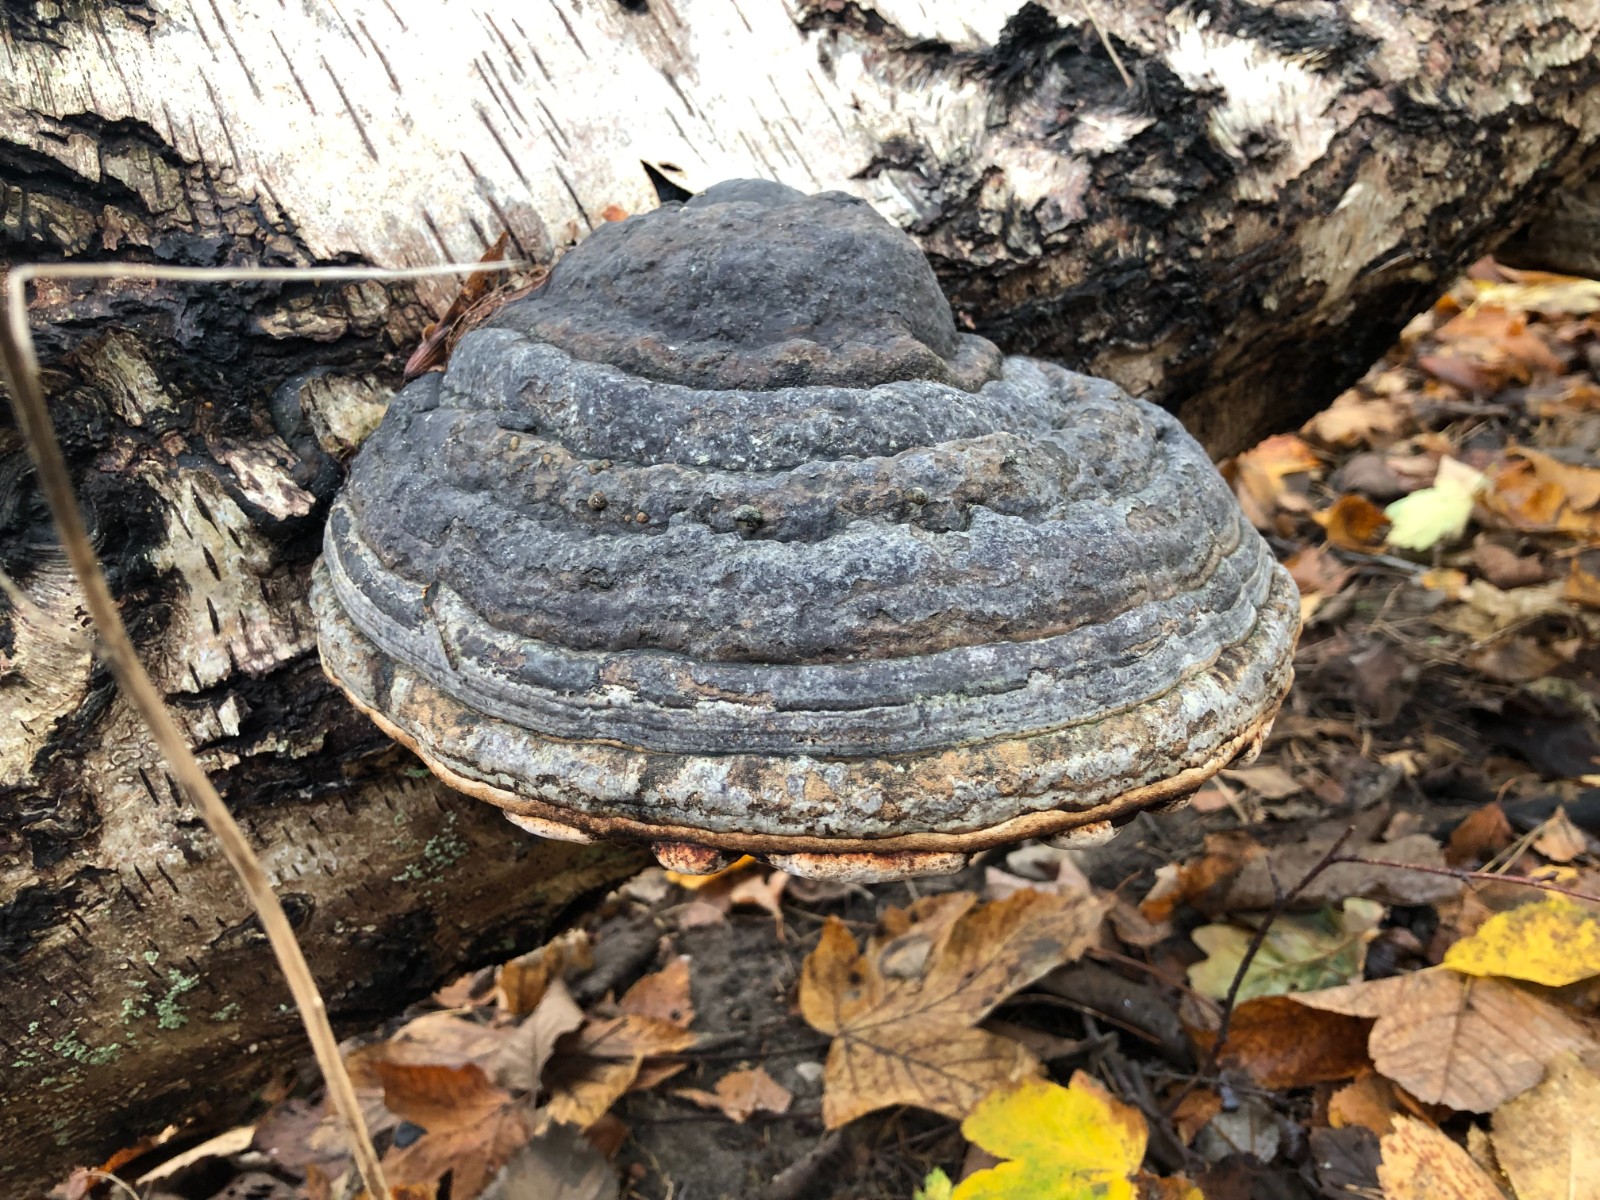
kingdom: Fungi
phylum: Basidiomycota
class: Agaricomycetes
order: Polyporales
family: Polyporaceae
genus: Fomes
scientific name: Fomes fomentarius
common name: tøndersvamp
